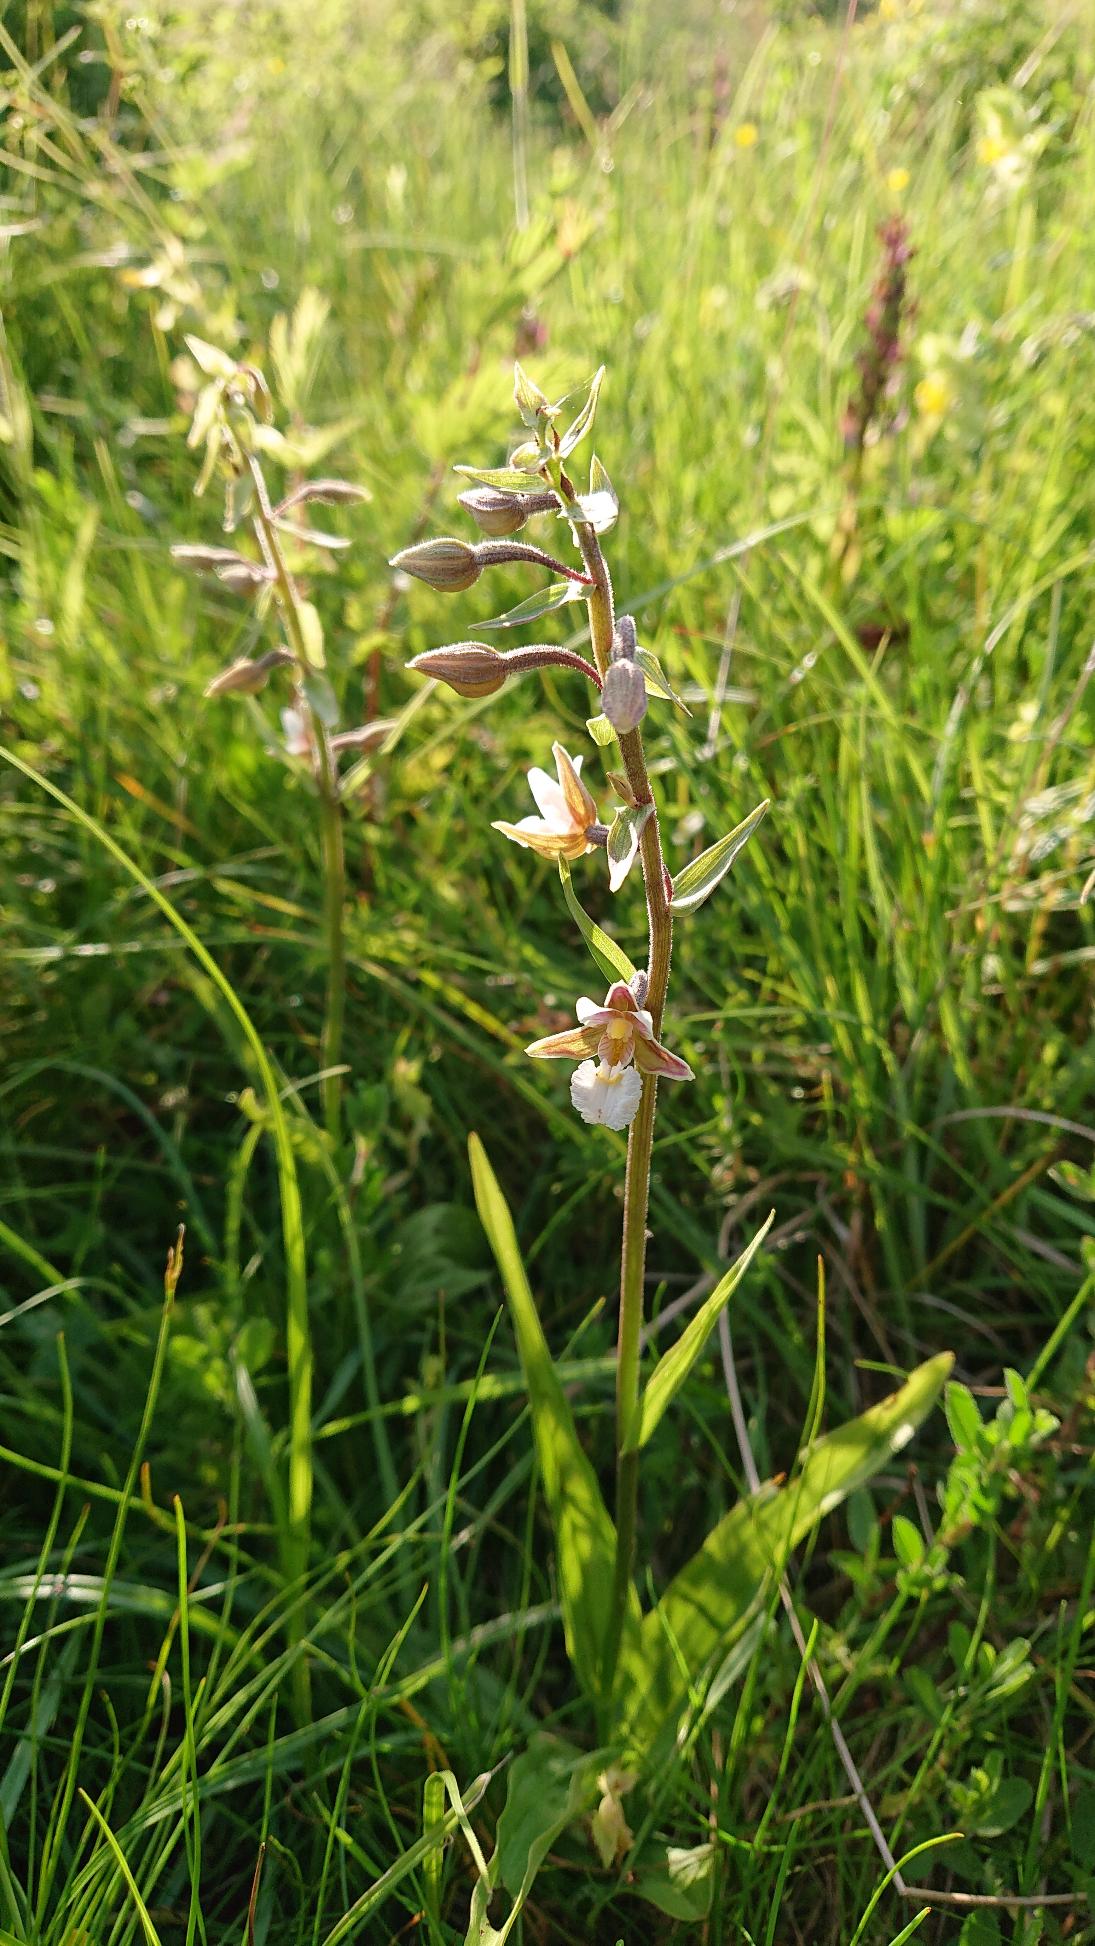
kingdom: Plantae
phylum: Tracheophyta
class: Liliopsida
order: Asparagales
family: Orchidaceae
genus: Epipactis
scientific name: Epipactis palustris
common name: Sump-hullæbe
